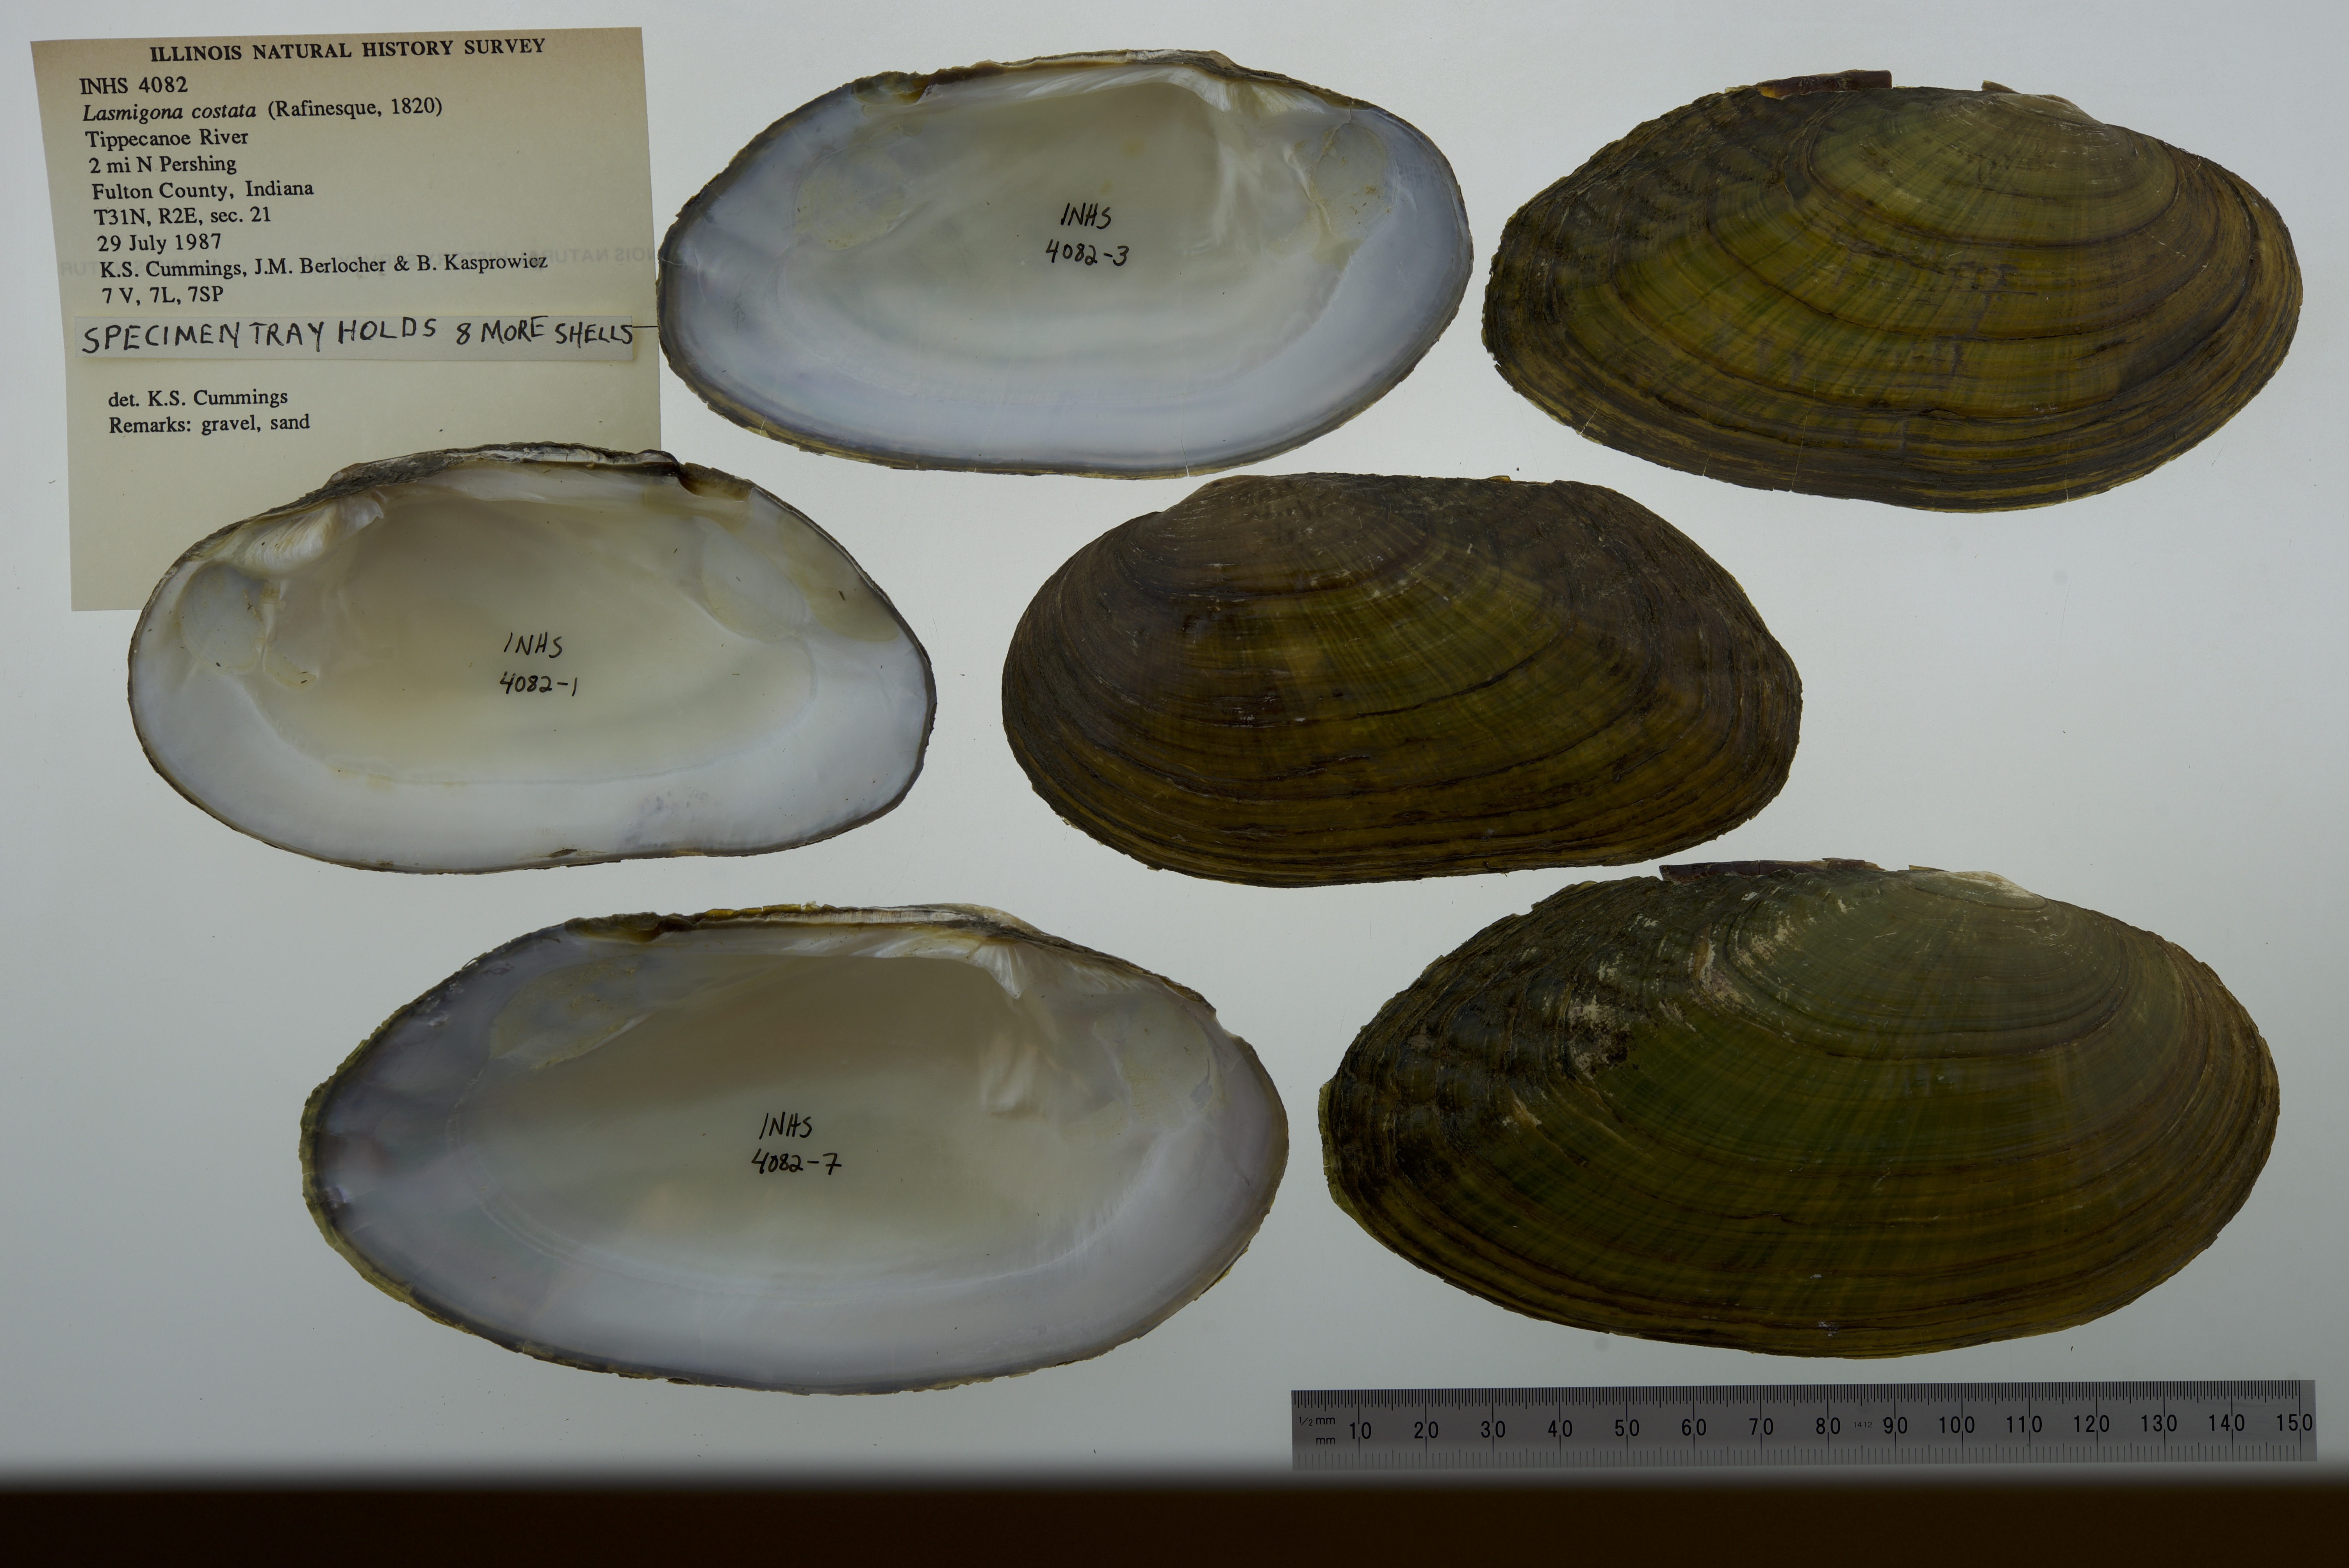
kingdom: Animalia
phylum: Mollusca
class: Bivalvia
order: Unionida
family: Unionidae
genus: Lasmigona
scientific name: Lasmigona costata
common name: Flutedshell
